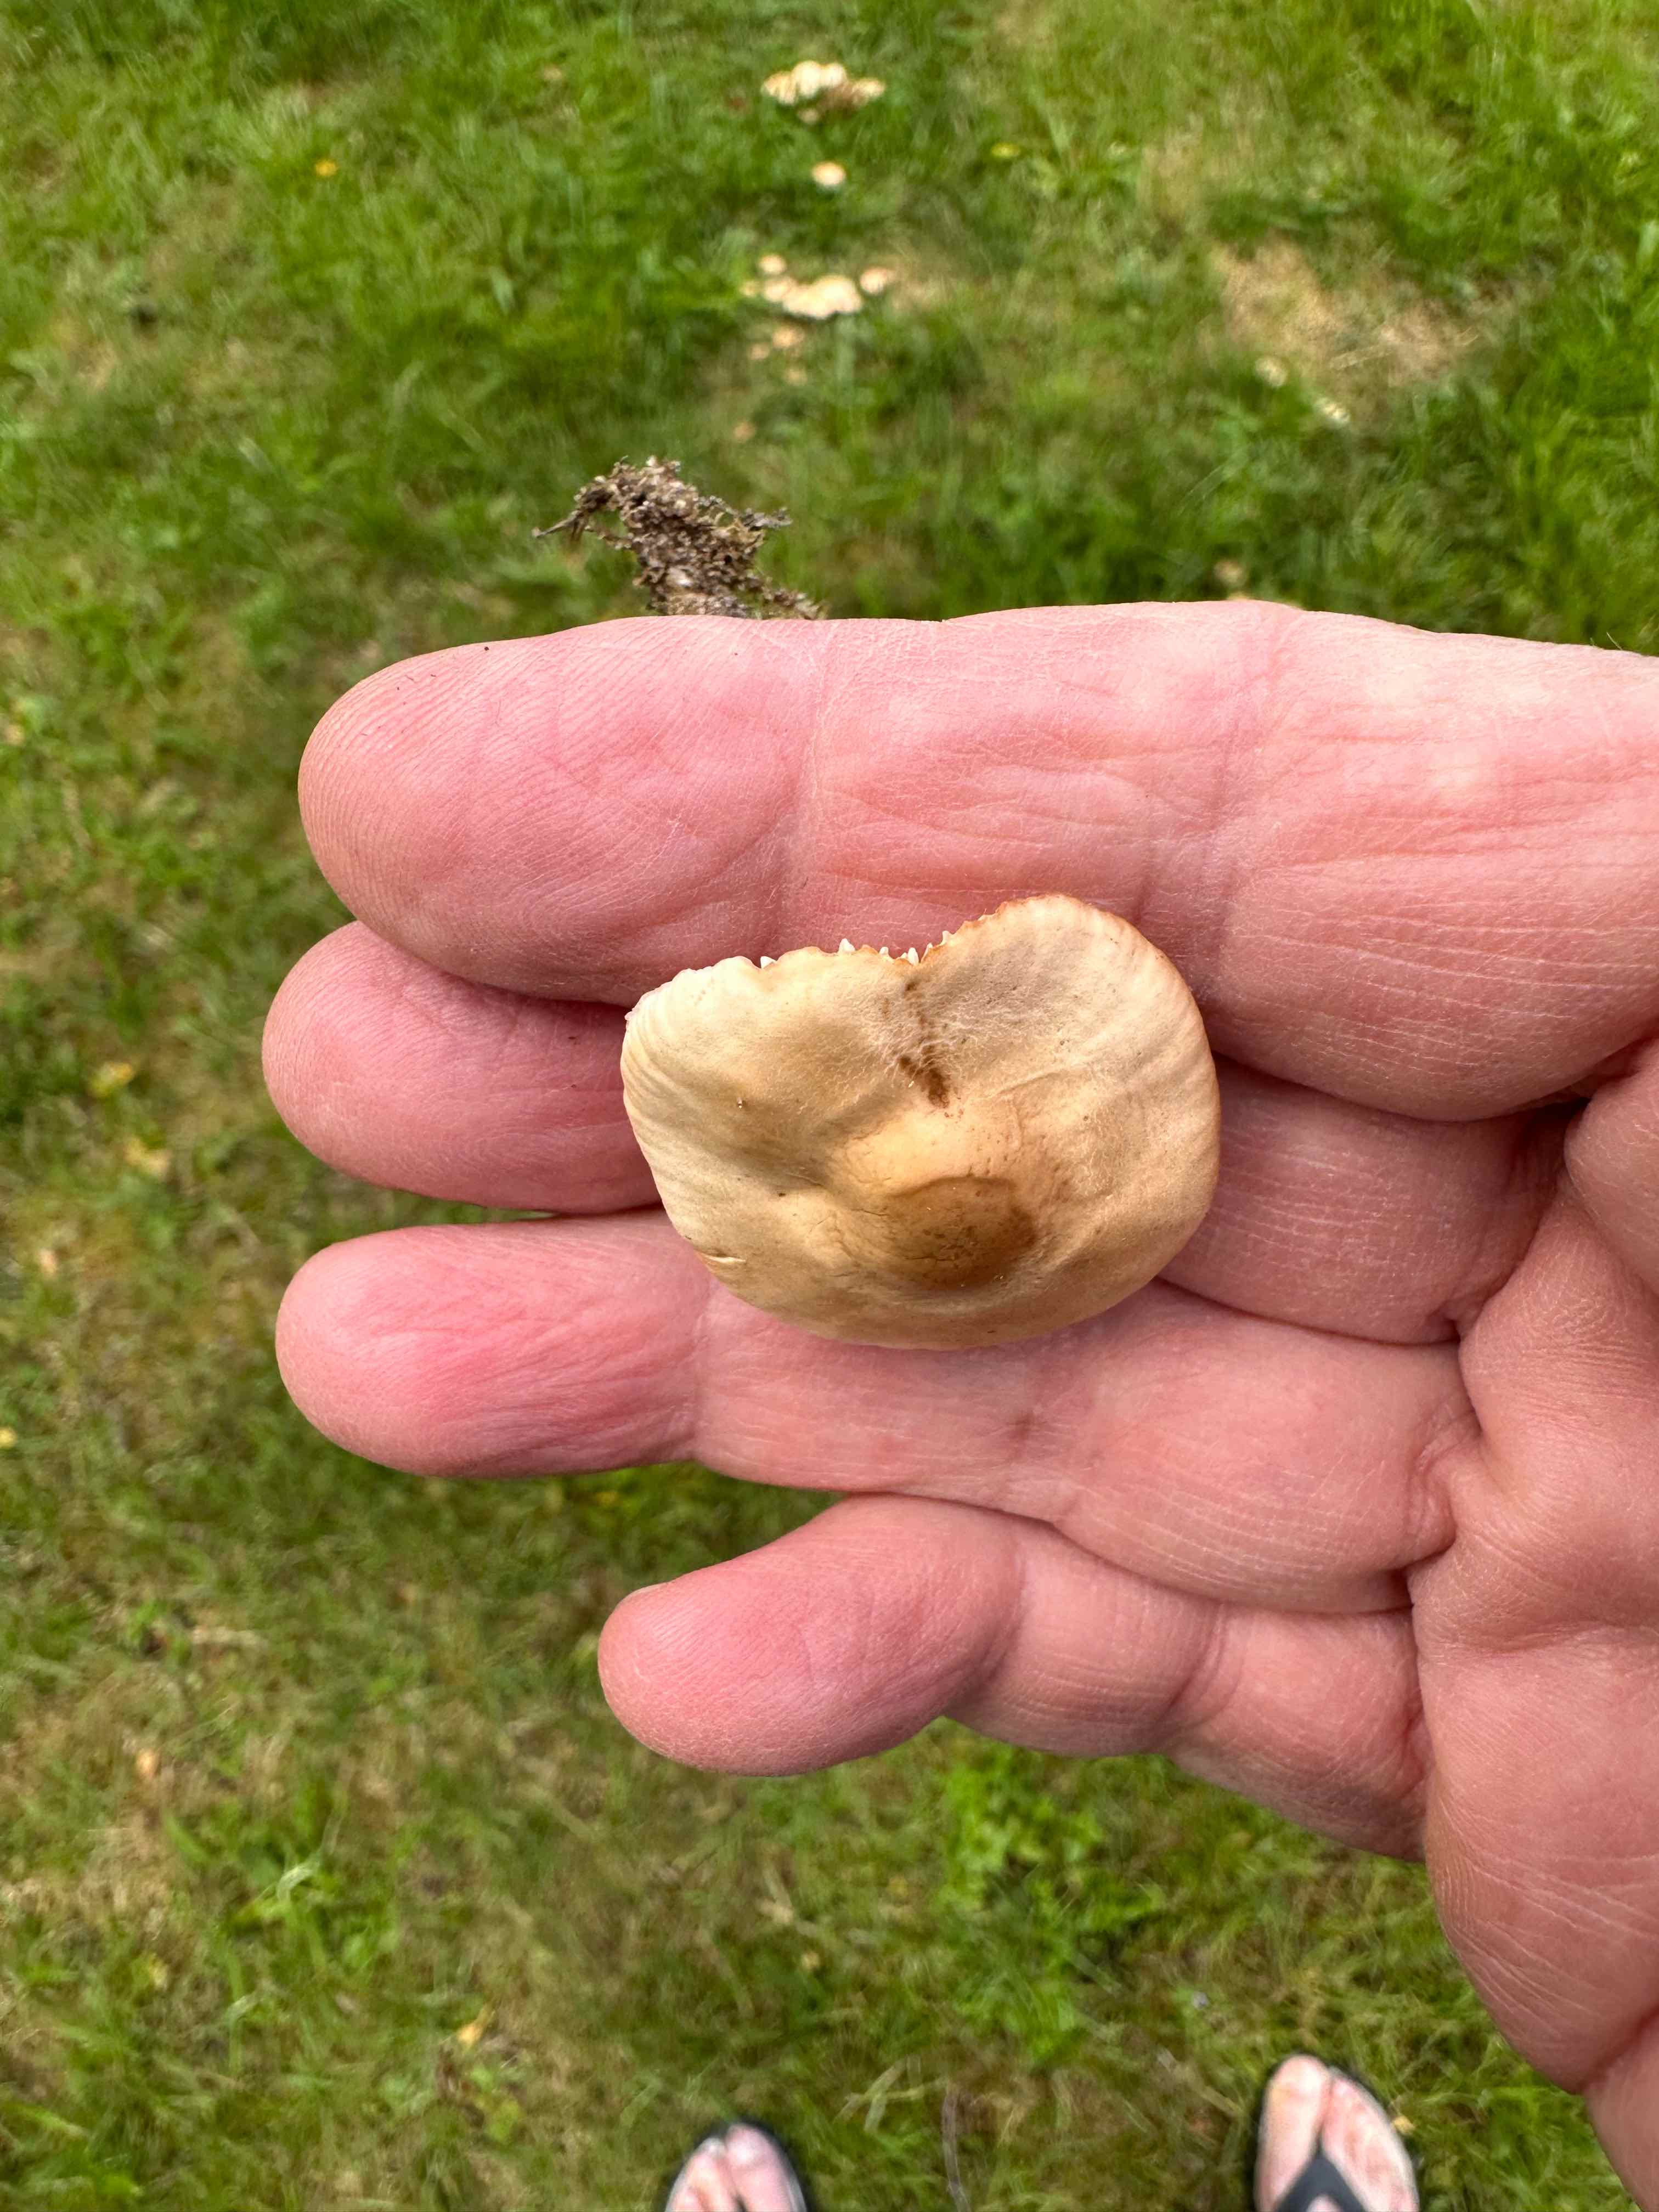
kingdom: Fungi
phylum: Basidiomycota
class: Agaricomycetes
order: Agaricales
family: Marasmiaceae
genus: Marasmius
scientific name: Marasmius oreades
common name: elledans-bruskhat
